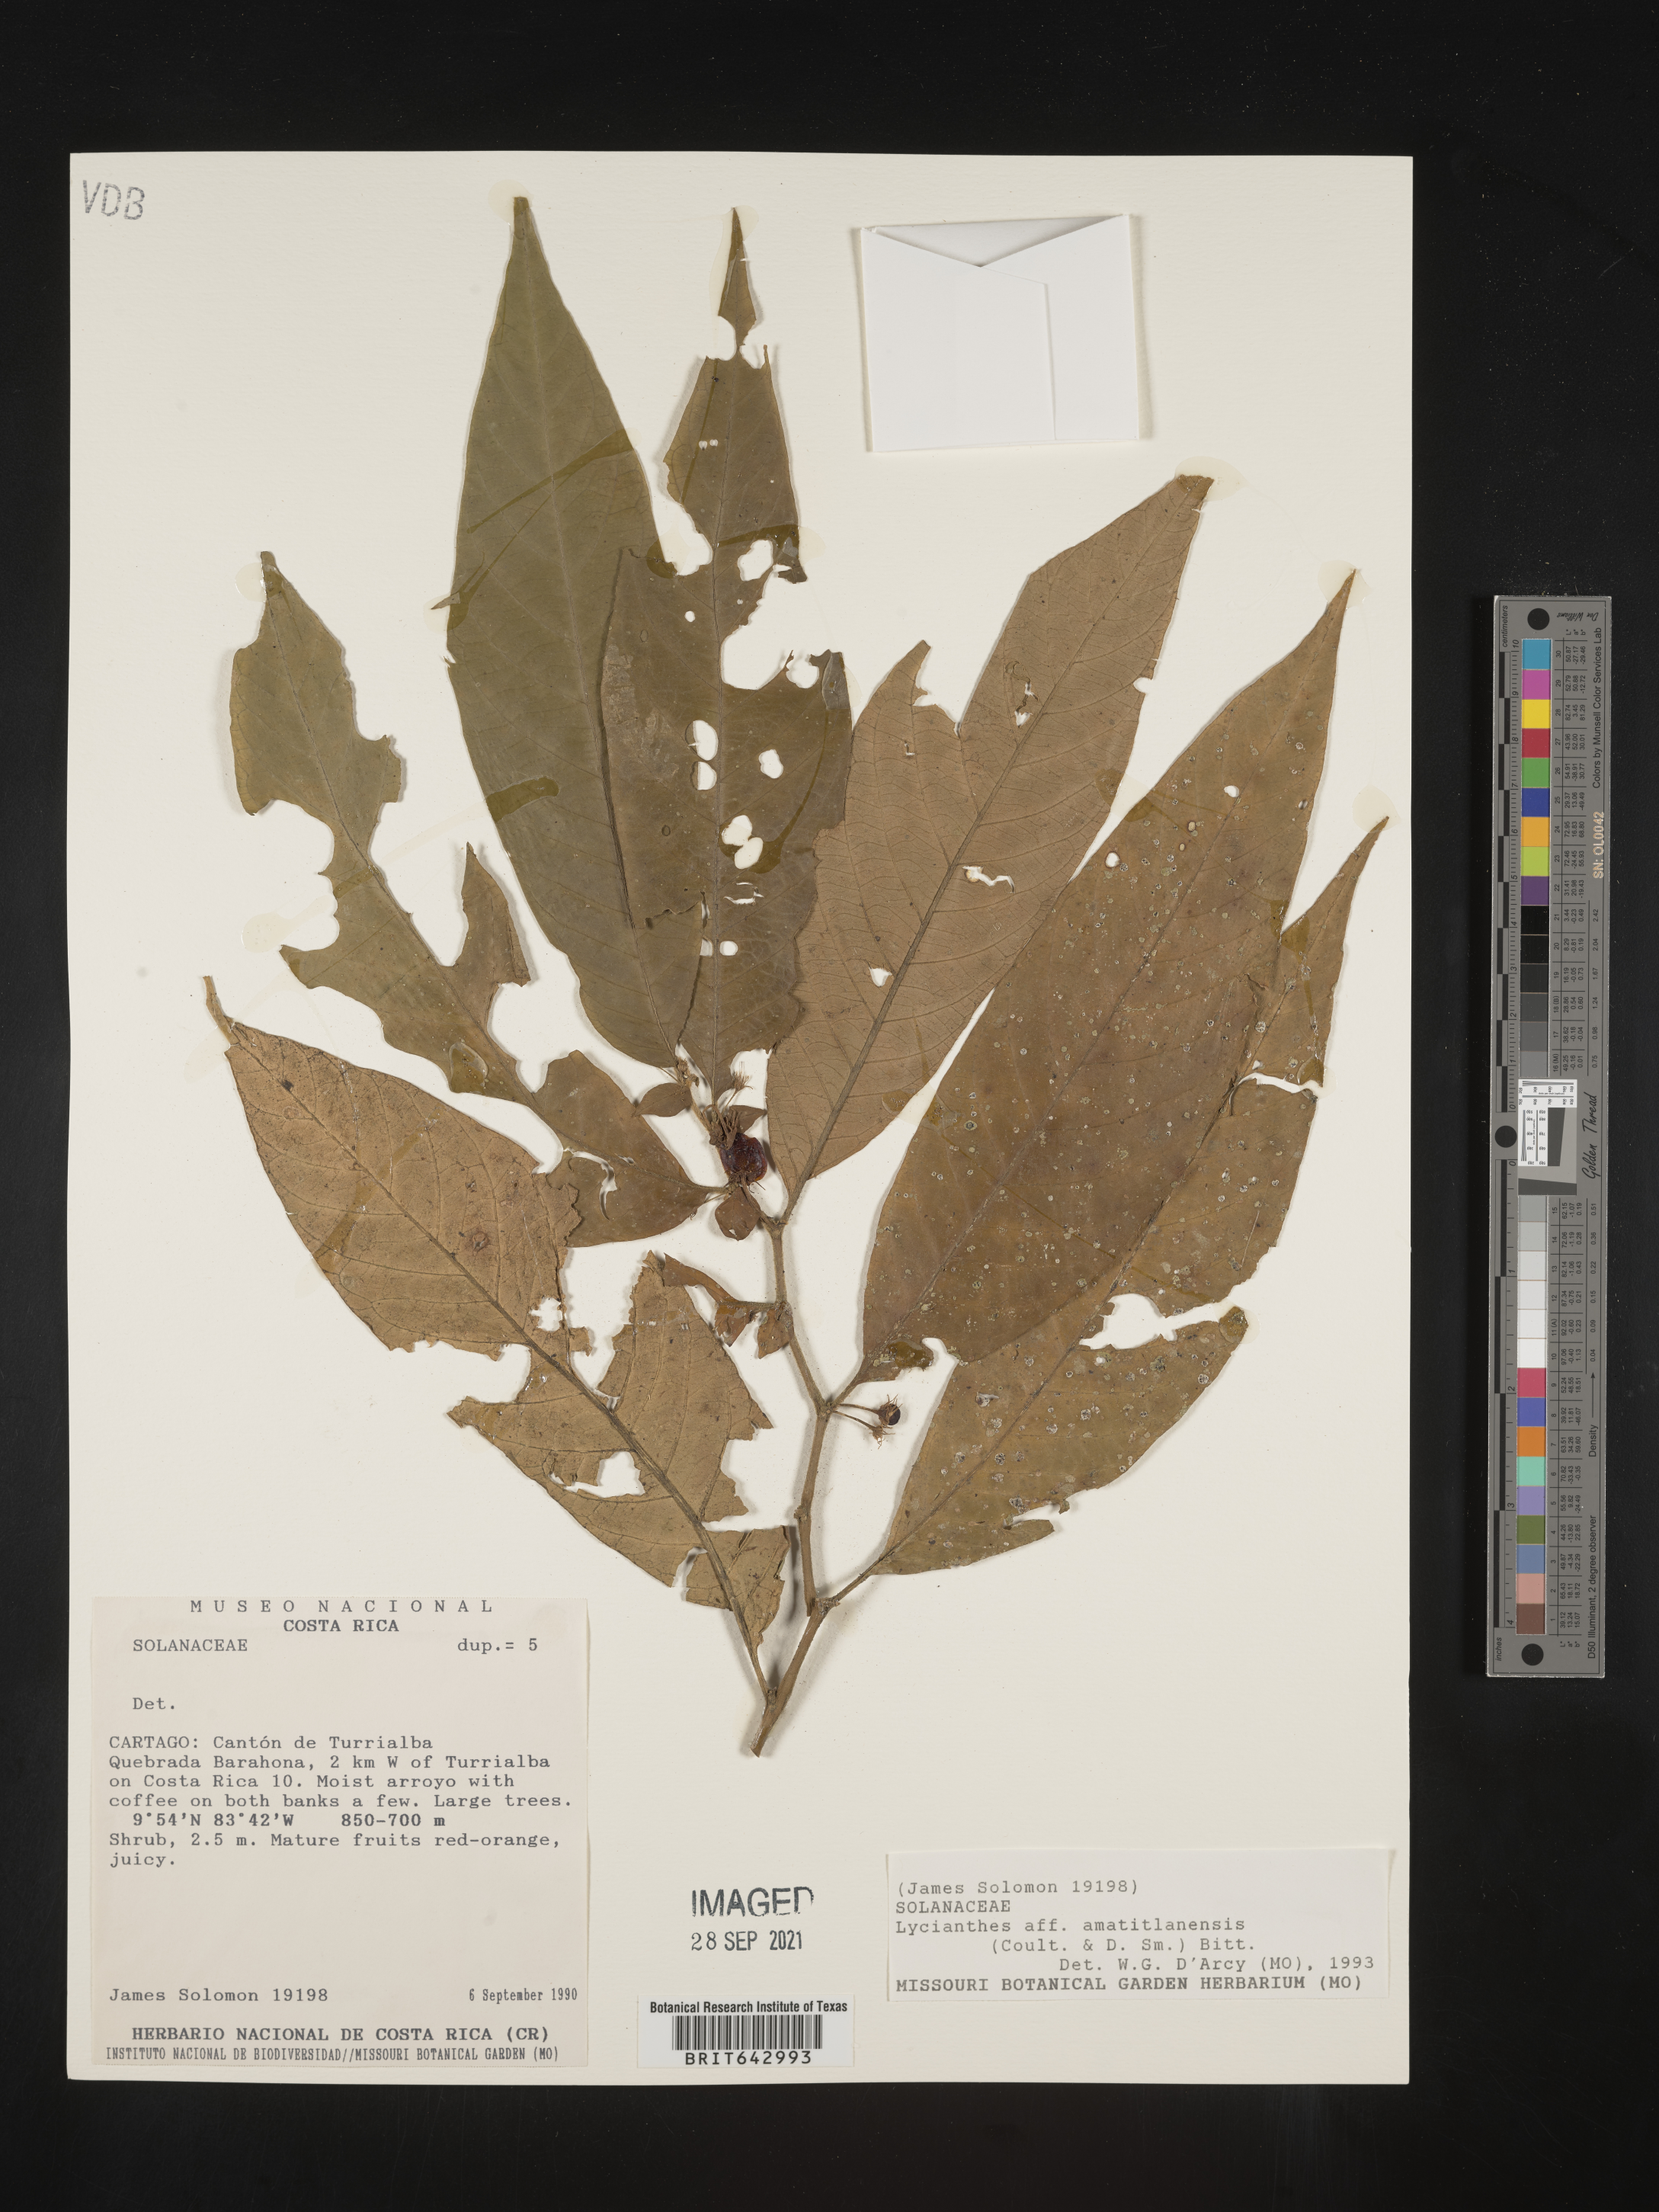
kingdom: Plantae
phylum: Tracheophyta
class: Magnoliopsida
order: Solanales
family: Solanaceae
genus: Lycianthes
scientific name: Lycianthes
